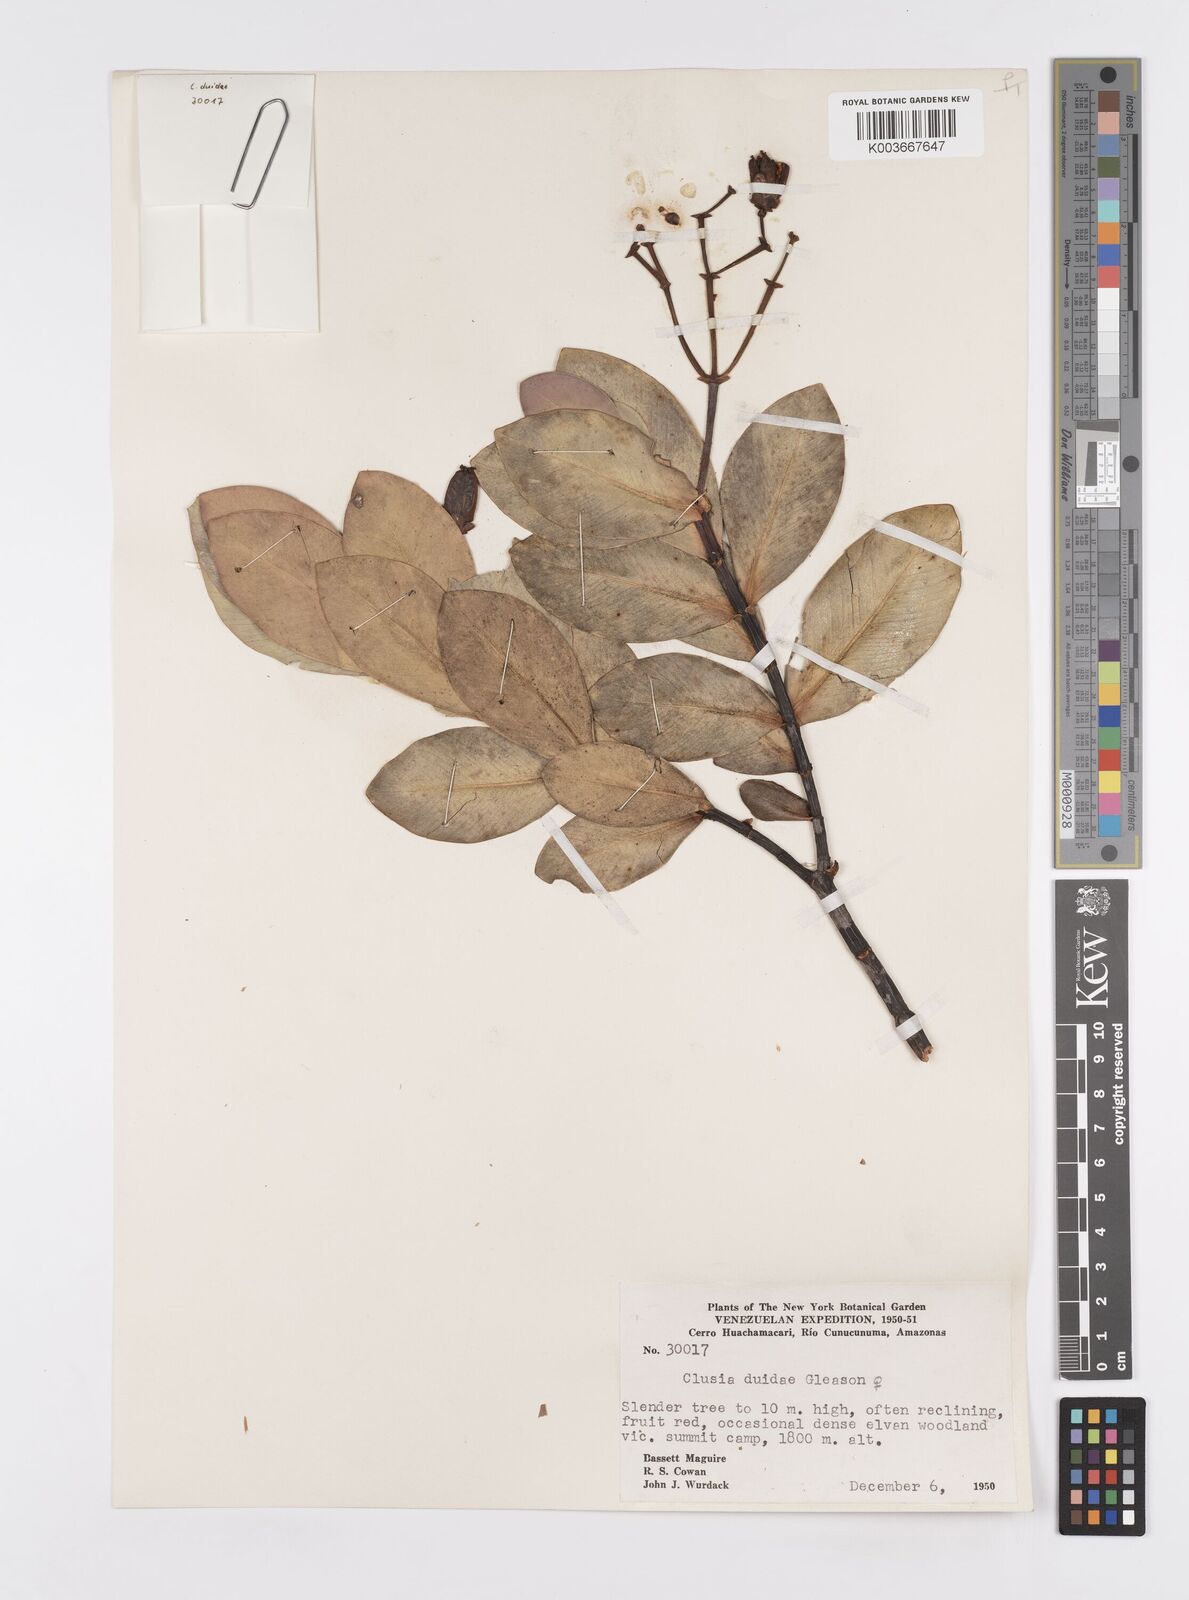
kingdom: Plantae
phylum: Tracheophyta
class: Magnoliopsida
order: Malpighiales
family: Clusiaceae
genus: Clusia
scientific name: Clusia duidae
